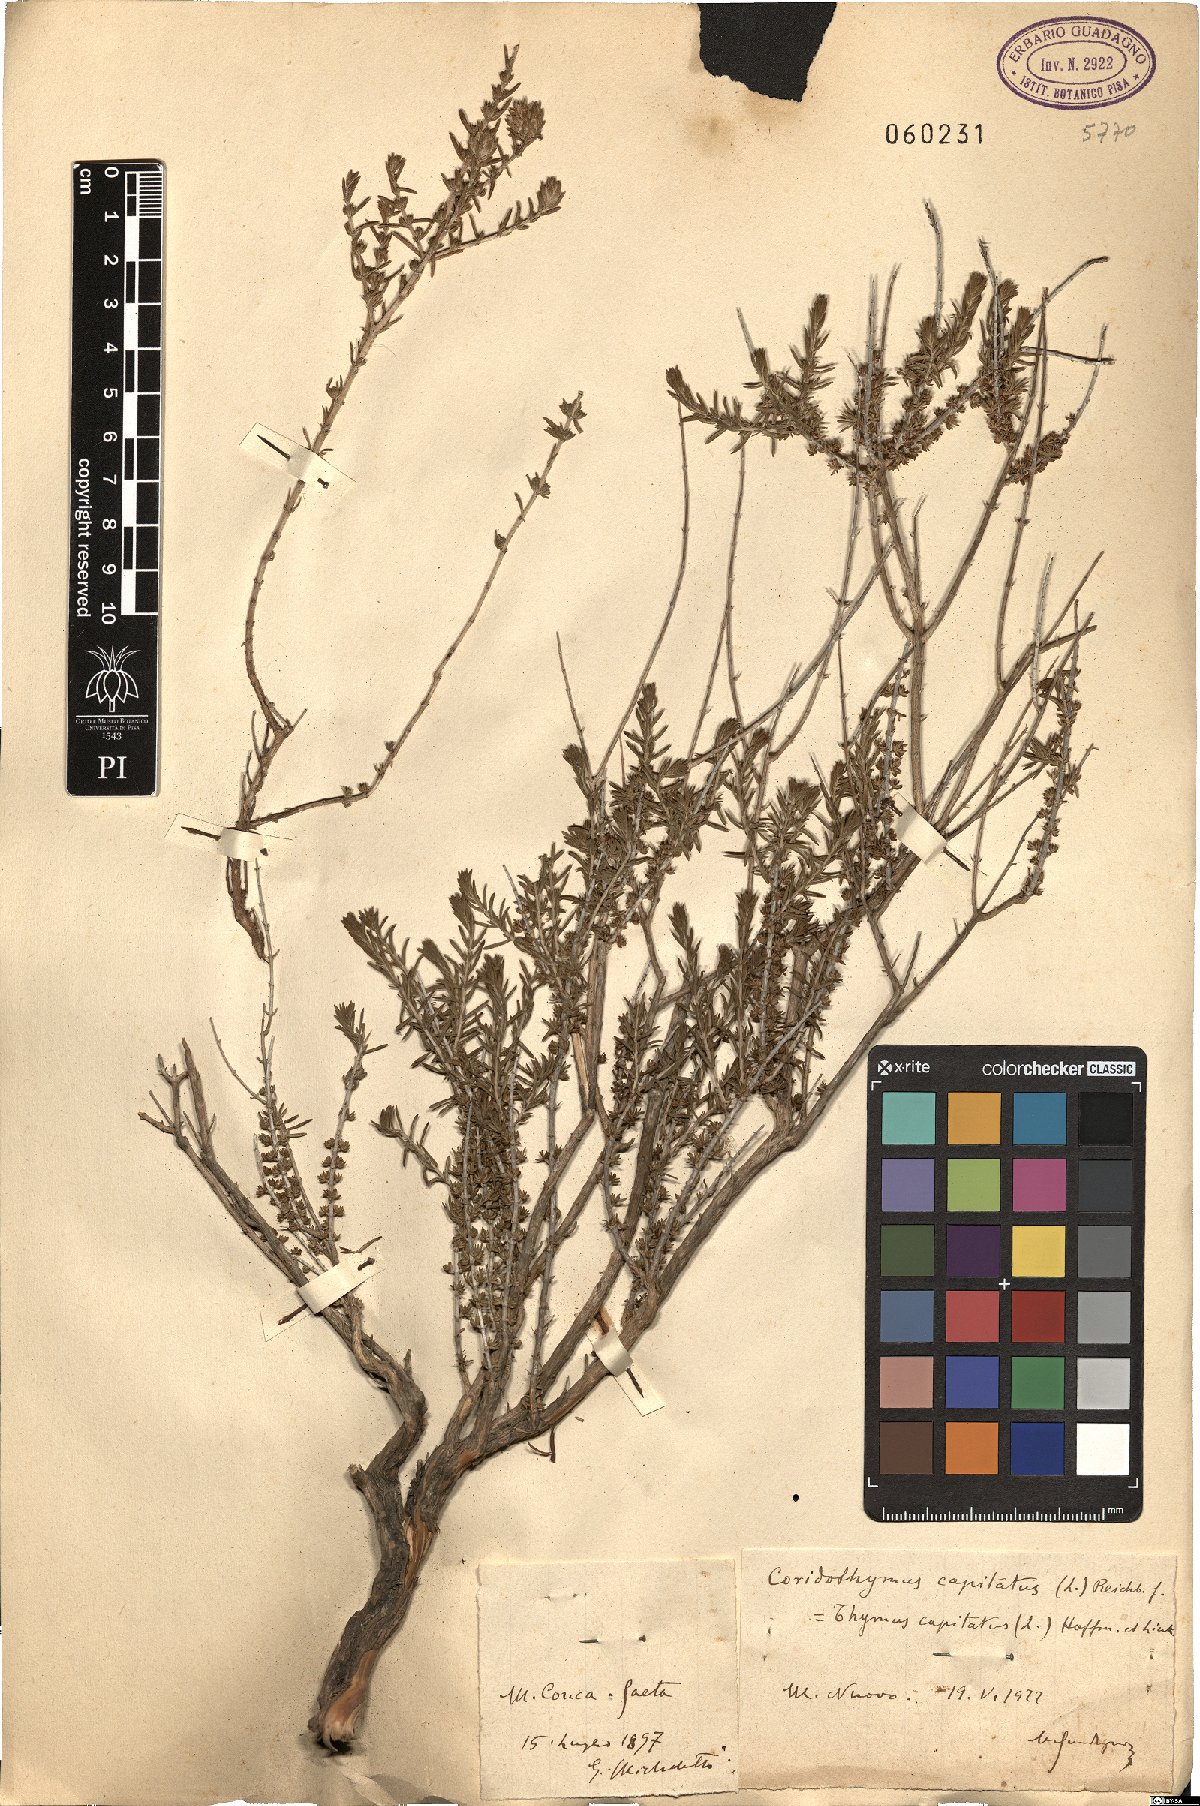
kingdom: Plantae
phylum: Tracheophyta
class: Magnoliopsida
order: Lamiales
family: Lamiaceae
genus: Thymbra
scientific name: Thymbra capitata
